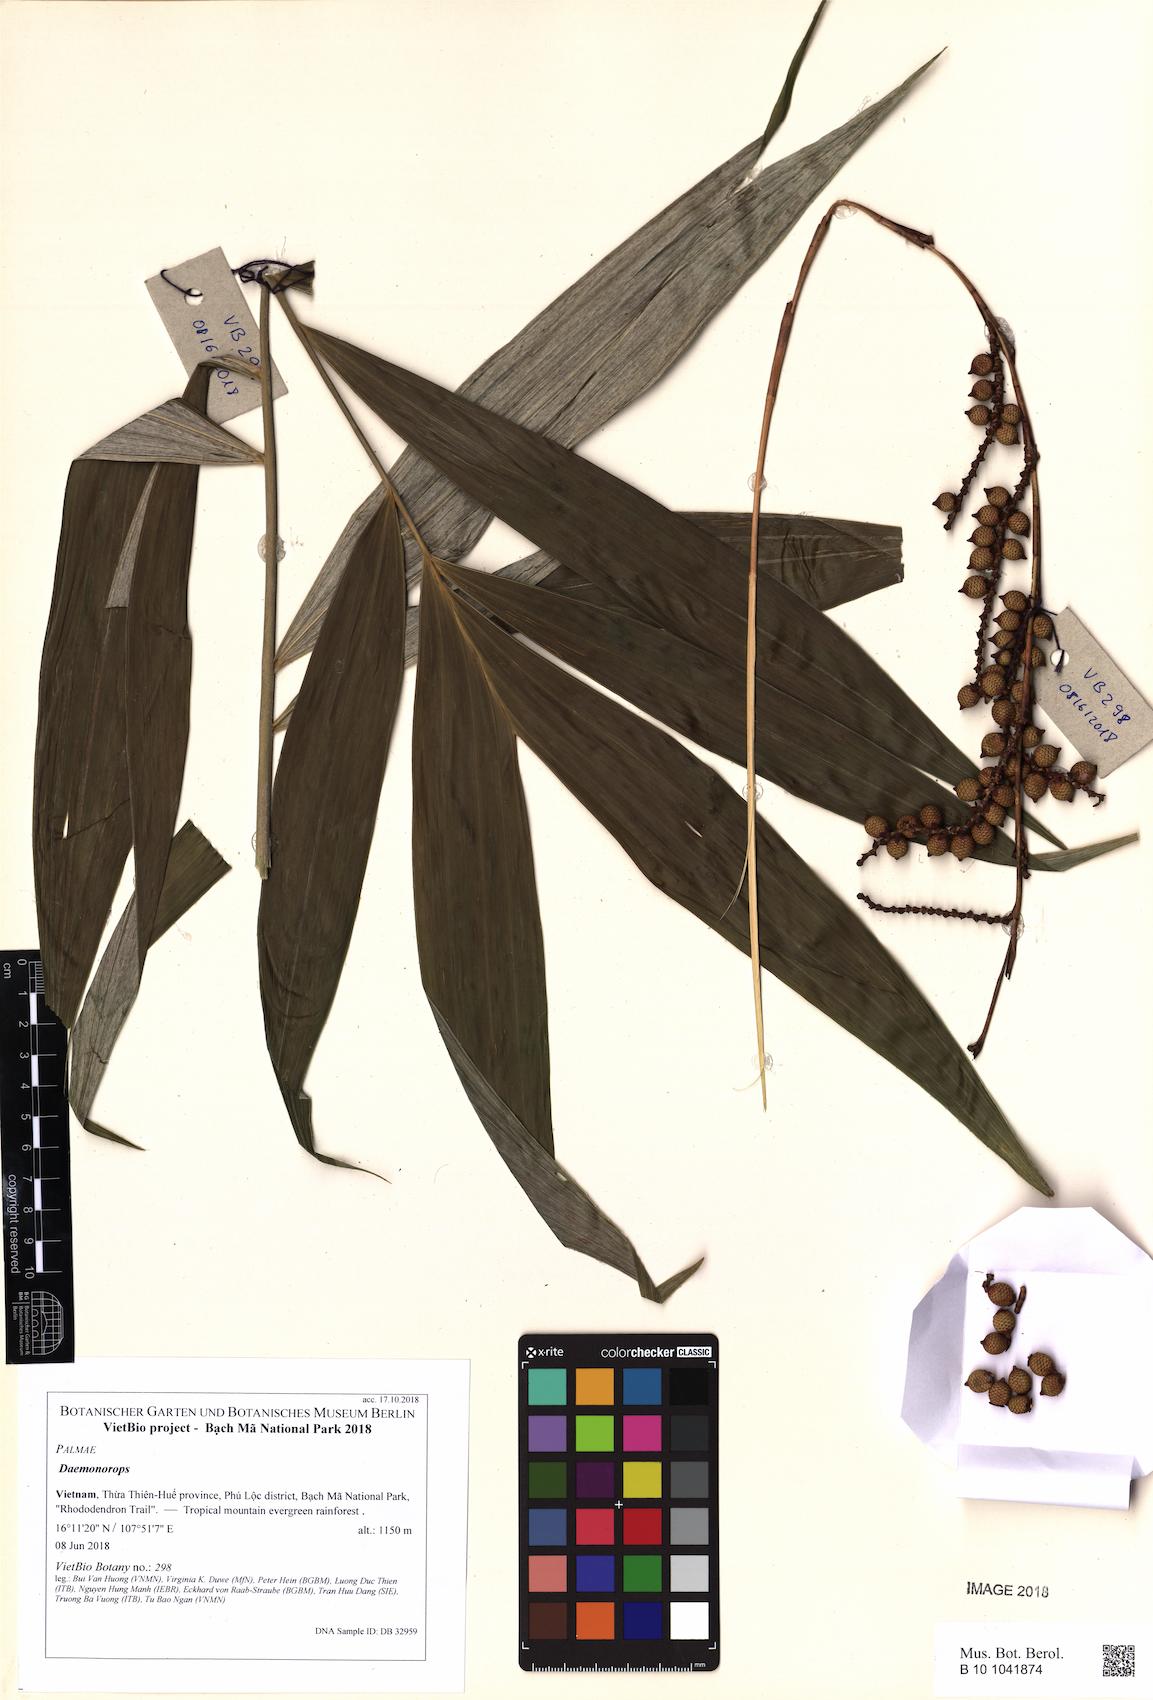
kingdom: Plantae
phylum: Tracheophyta
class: Liliopsida
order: Arecales
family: Arecaceae
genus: Daemonorops
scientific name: Daemonorops
